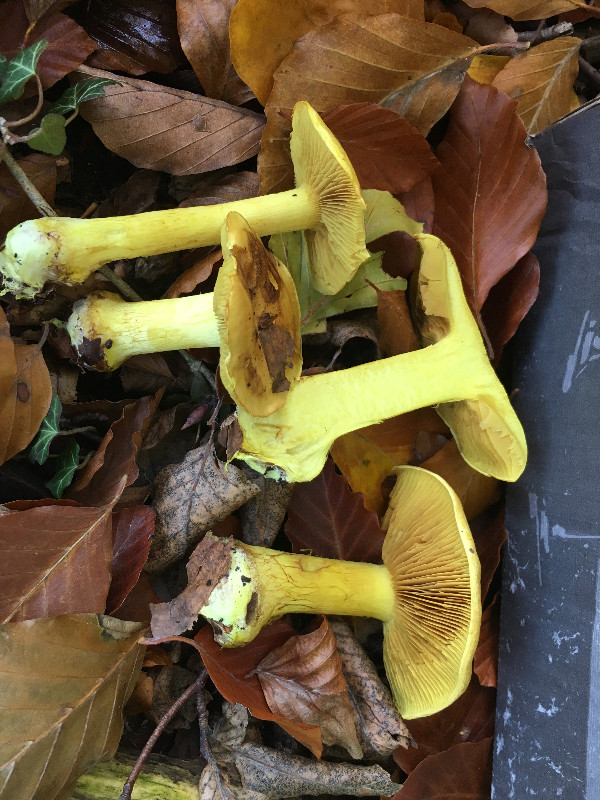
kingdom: Fungi
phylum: Basidiomycota
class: Agaricomycetes
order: Agaricales
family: Cortinariaceae
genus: Calonarius
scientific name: Calonarius splendens
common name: sirene-slørhat
